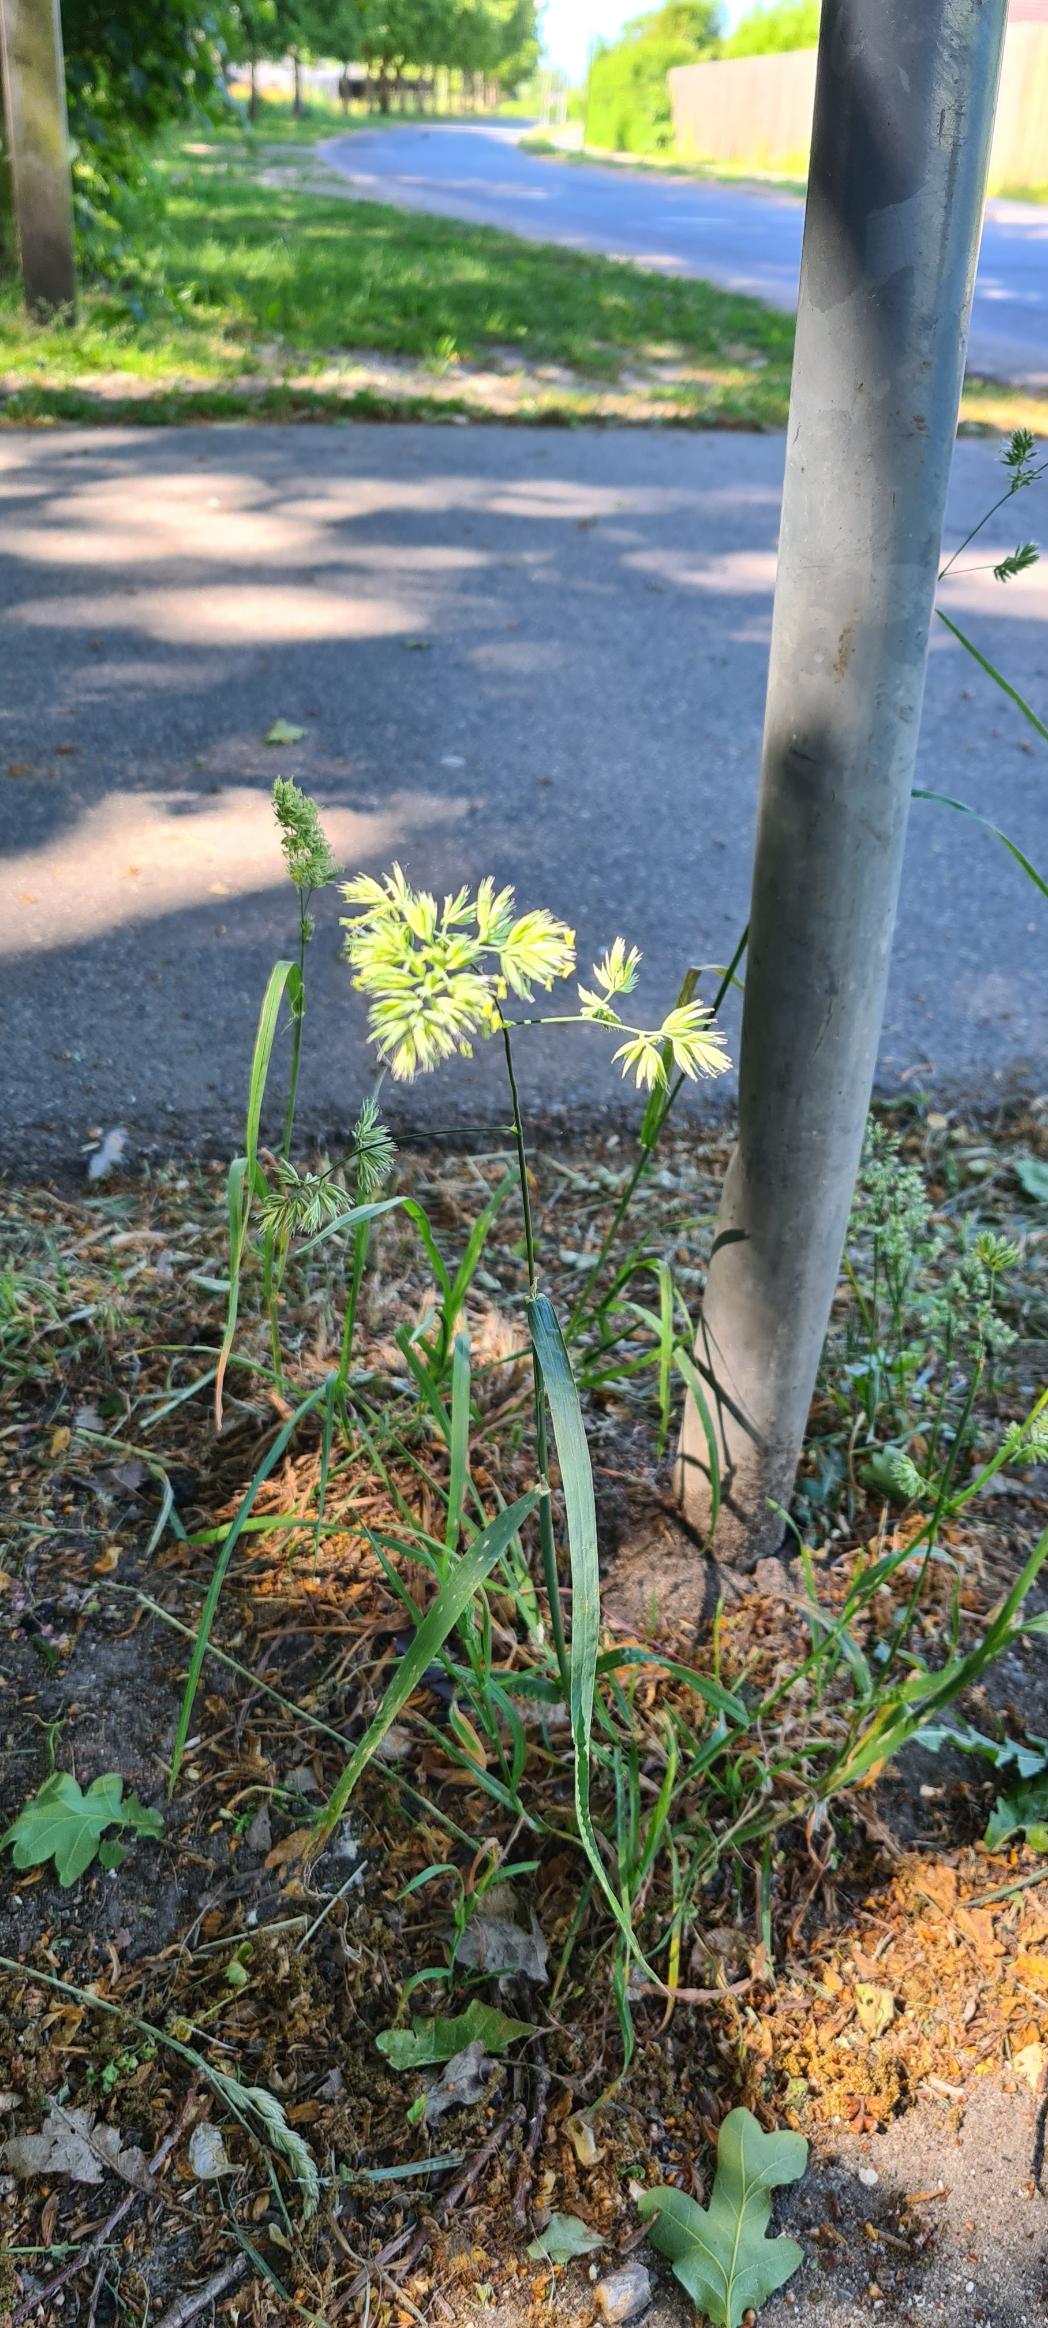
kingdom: Plantae
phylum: Tracheophyta
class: Liliopsida
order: Poales
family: Poaceae
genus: Dactylis
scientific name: Dactylis glomerata
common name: Almindelig hundegræs
